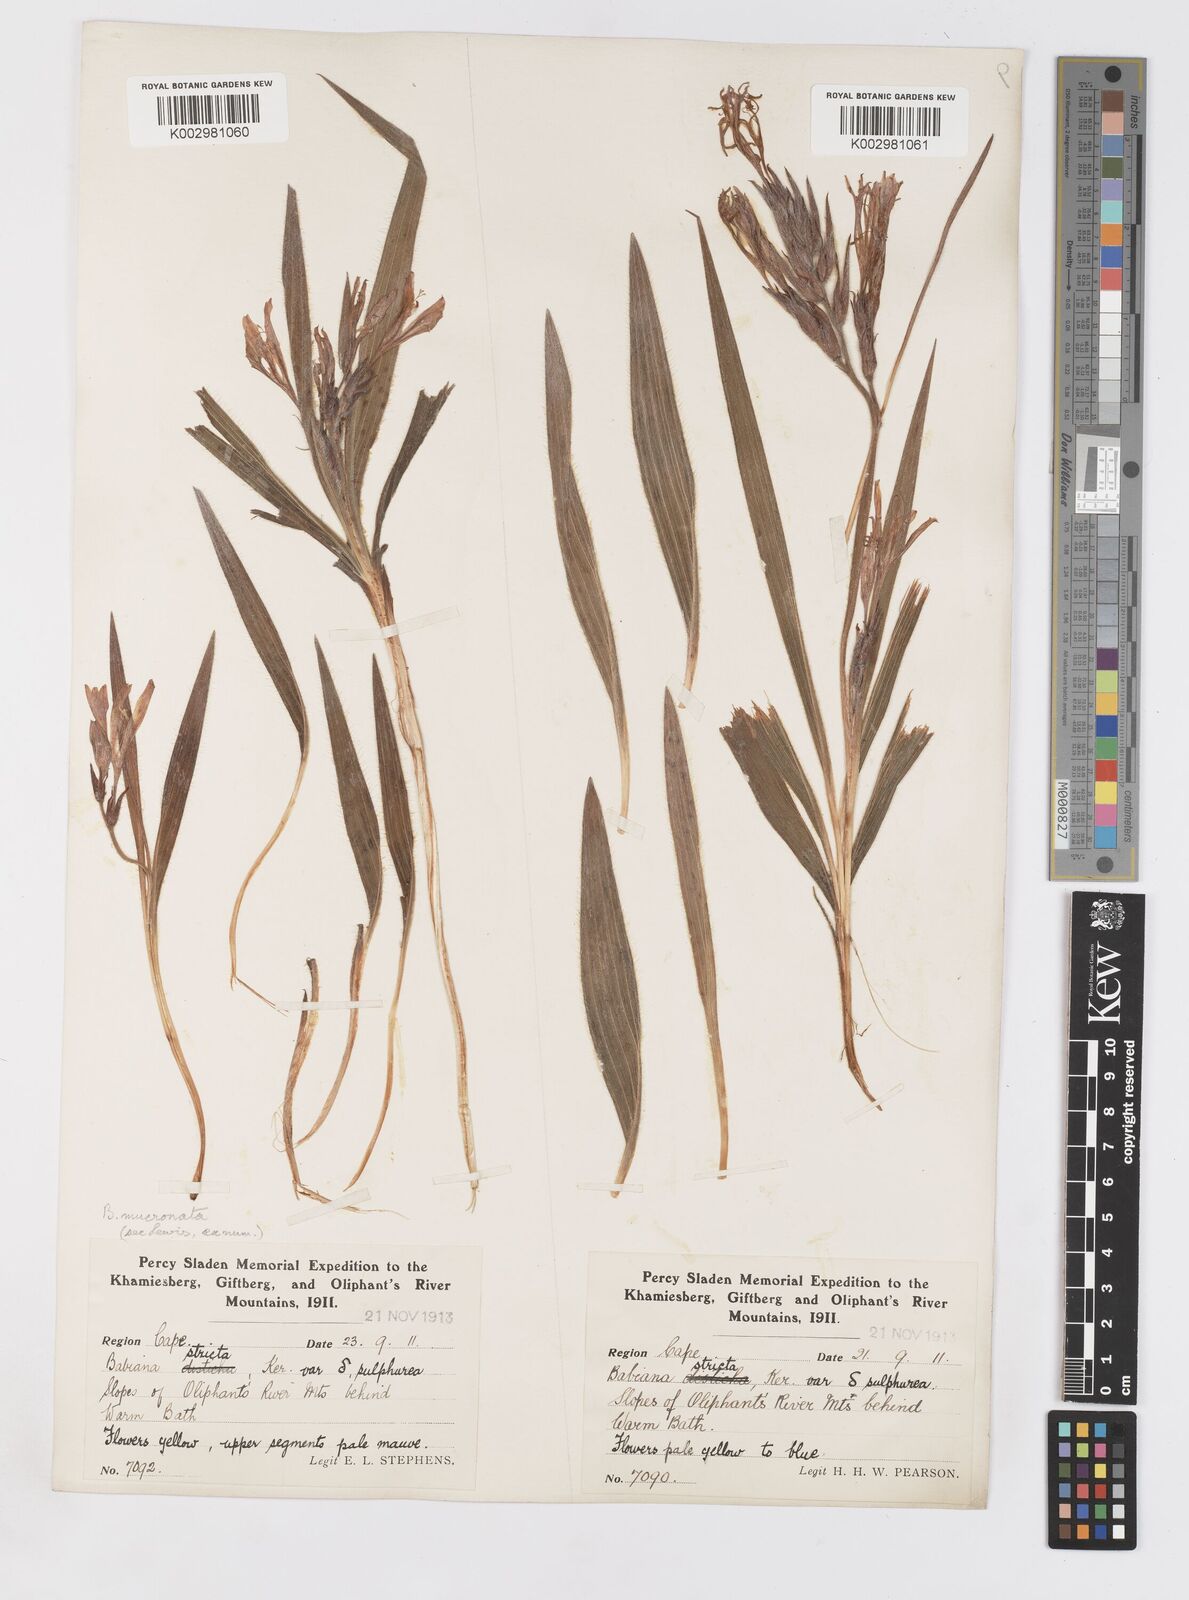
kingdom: Plantae
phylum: Tracheophyta
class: Liliopsida
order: Asparagales
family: Iridaceae
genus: Babiana
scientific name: Babiana mucronata
